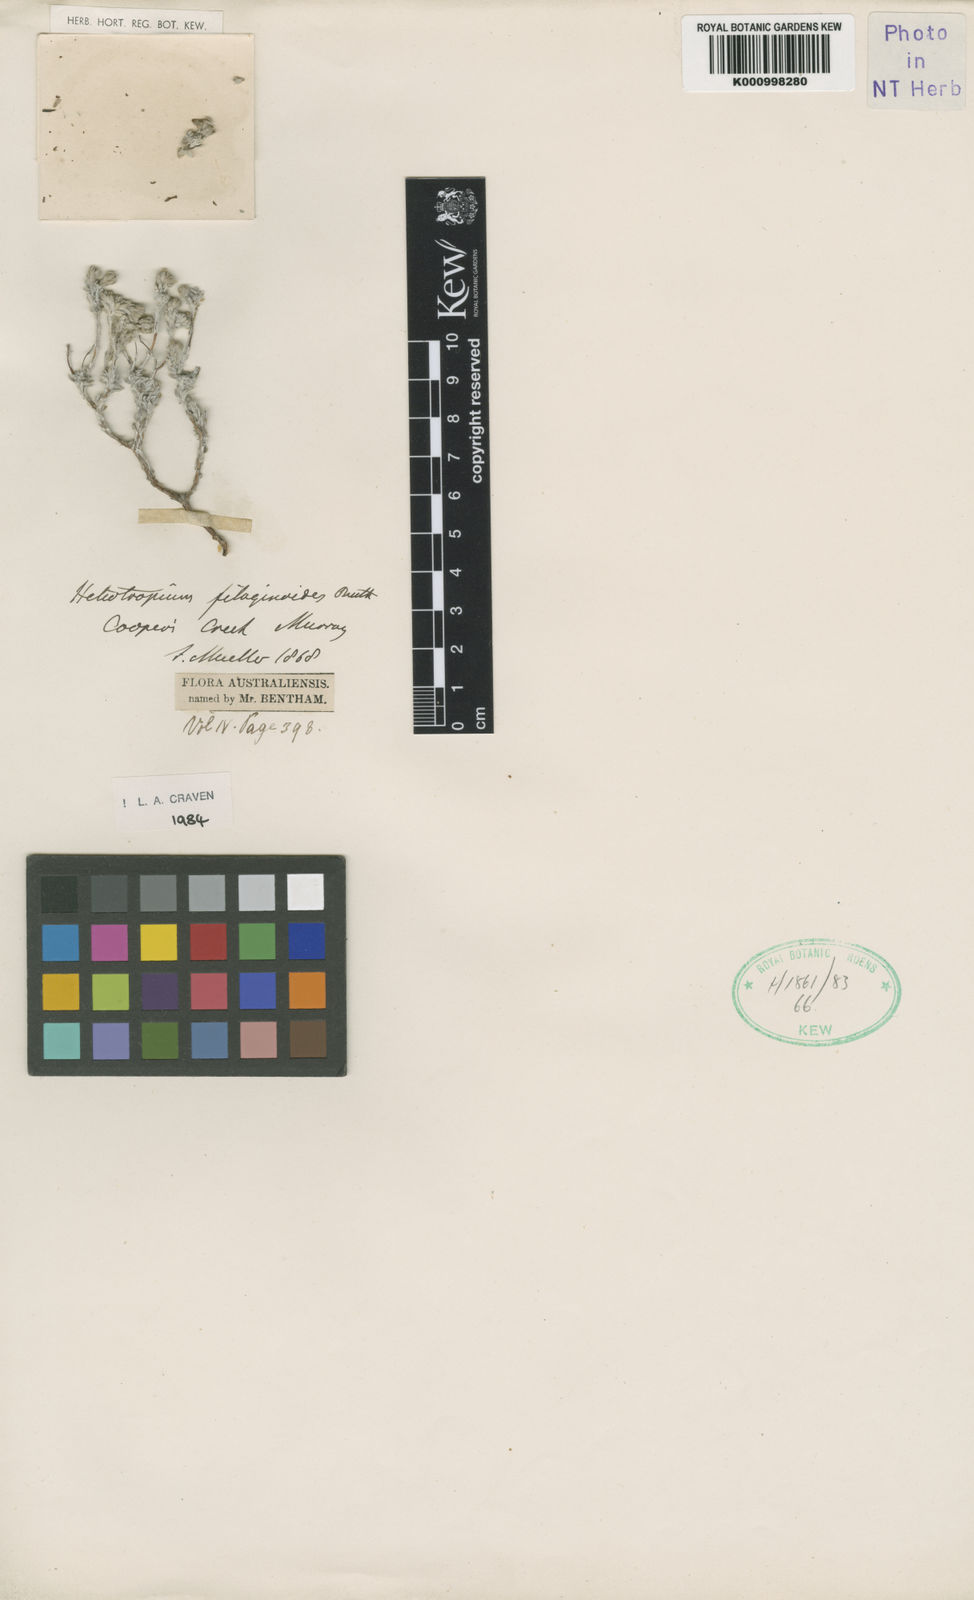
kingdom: Plantae
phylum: Tracheophyta
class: Magnoliopsida
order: Boraginales
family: Heliotropiaceae
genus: Euploca
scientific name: Euploca filaginoides
